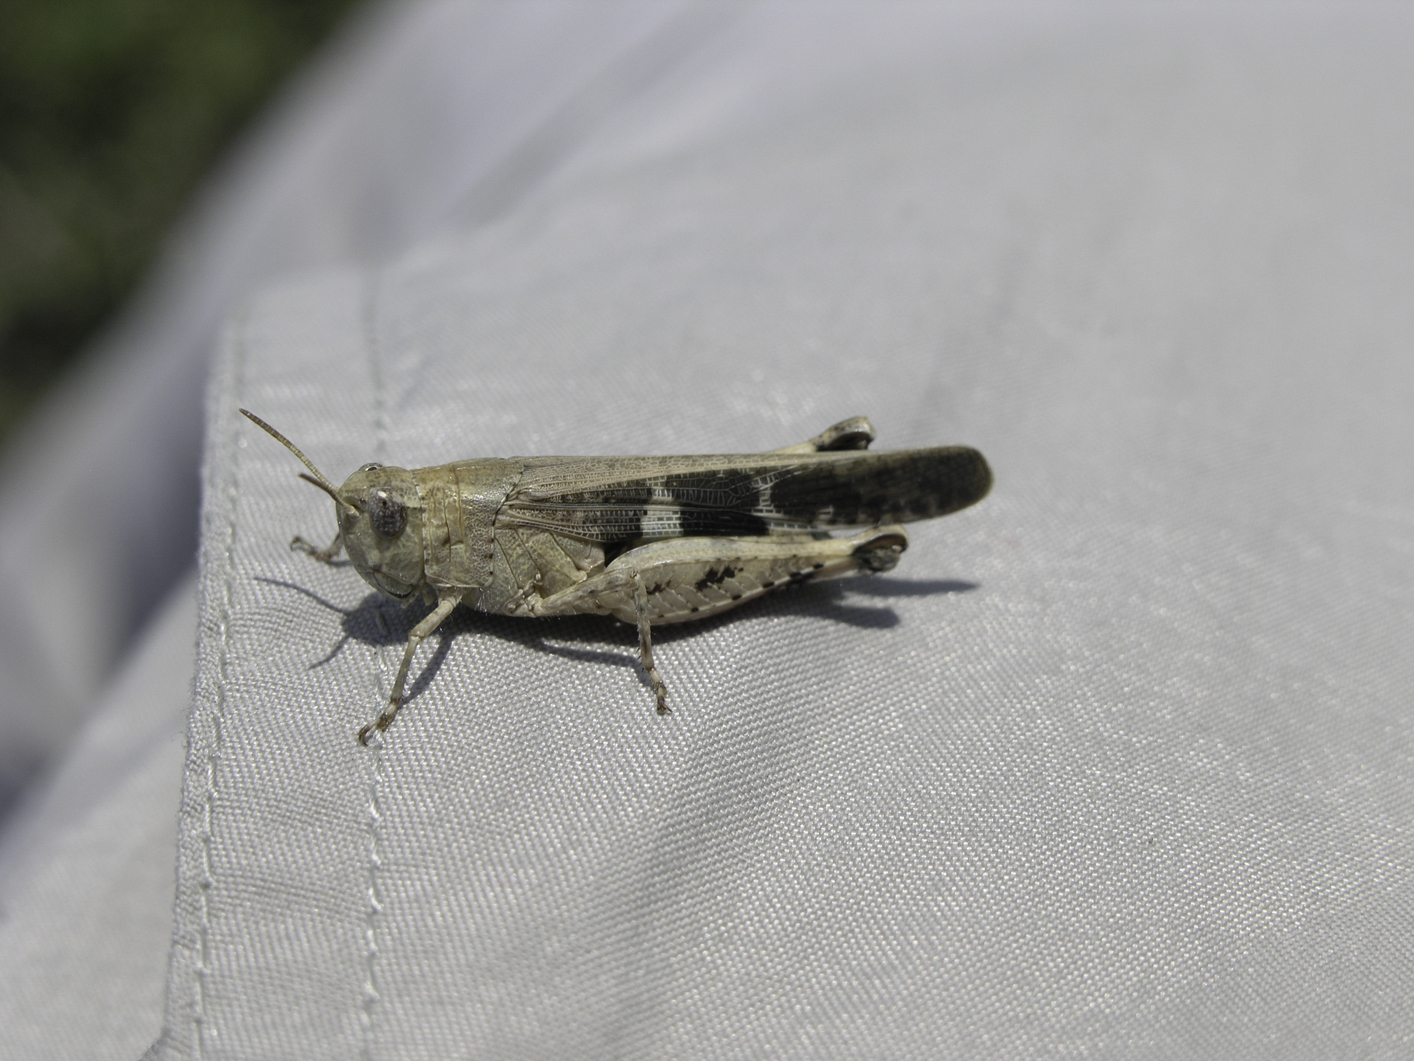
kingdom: Animalia
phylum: Arthropoda
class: Insecta
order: Orthoptera
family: Acrididae
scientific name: Acrididae
